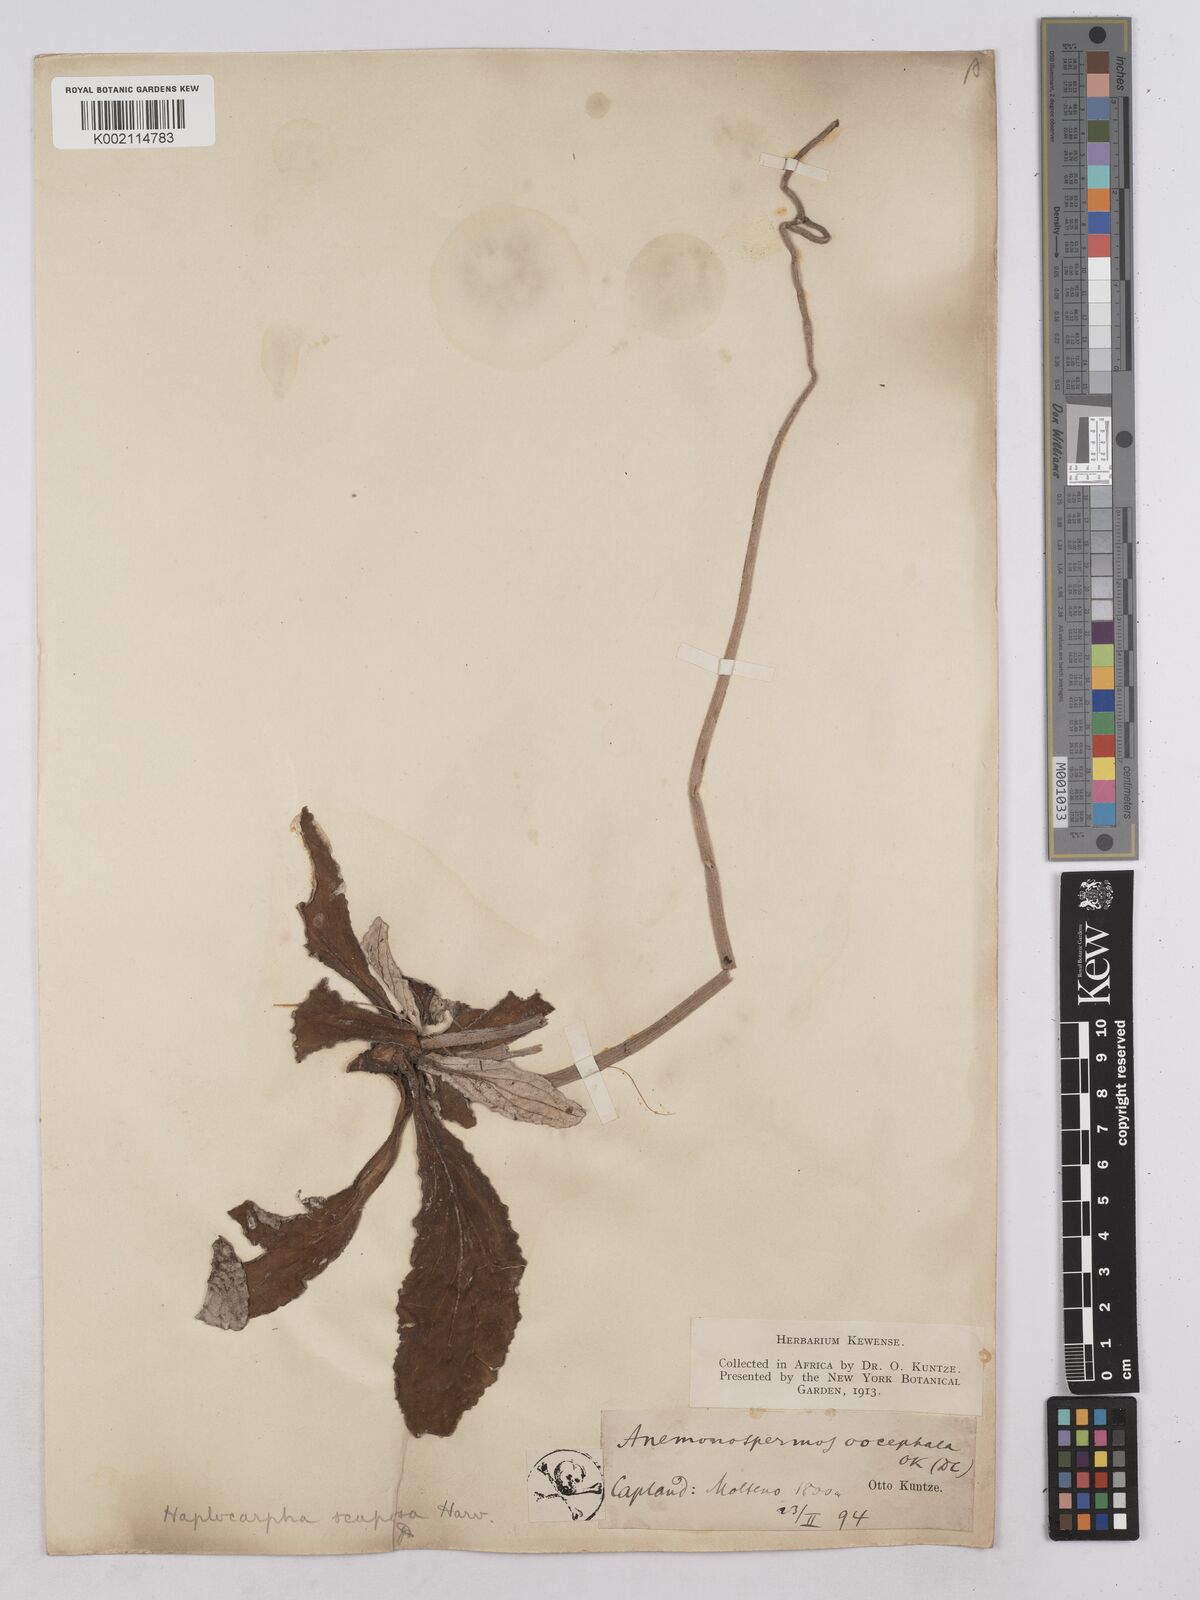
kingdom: Plantae
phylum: Tracheophyta
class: Magnoliopsida
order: Asterales
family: Asteraceae
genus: Haplocarpha
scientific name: Haplocarpha scaposa
